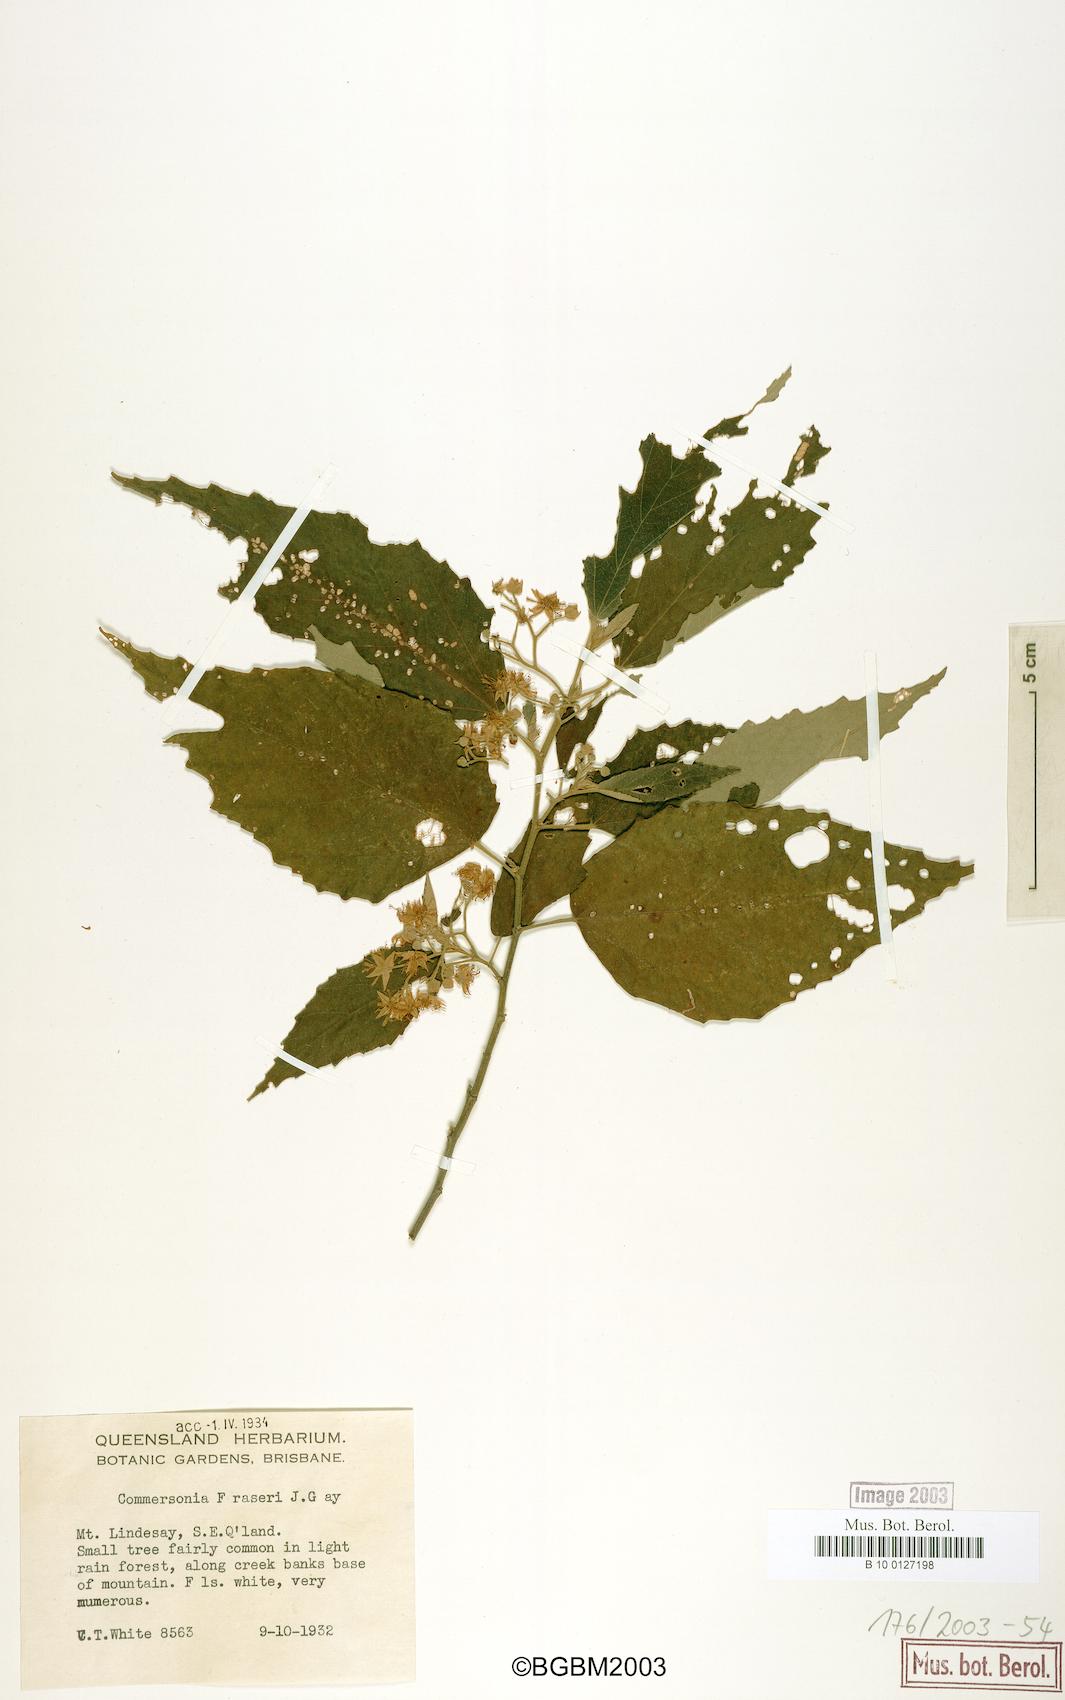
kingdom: Plantae
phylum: Tracheophyta
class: Magnoliopsida
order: Malvales
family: Malvaceae
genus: Androcalva
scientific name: Androcalva fraseri
